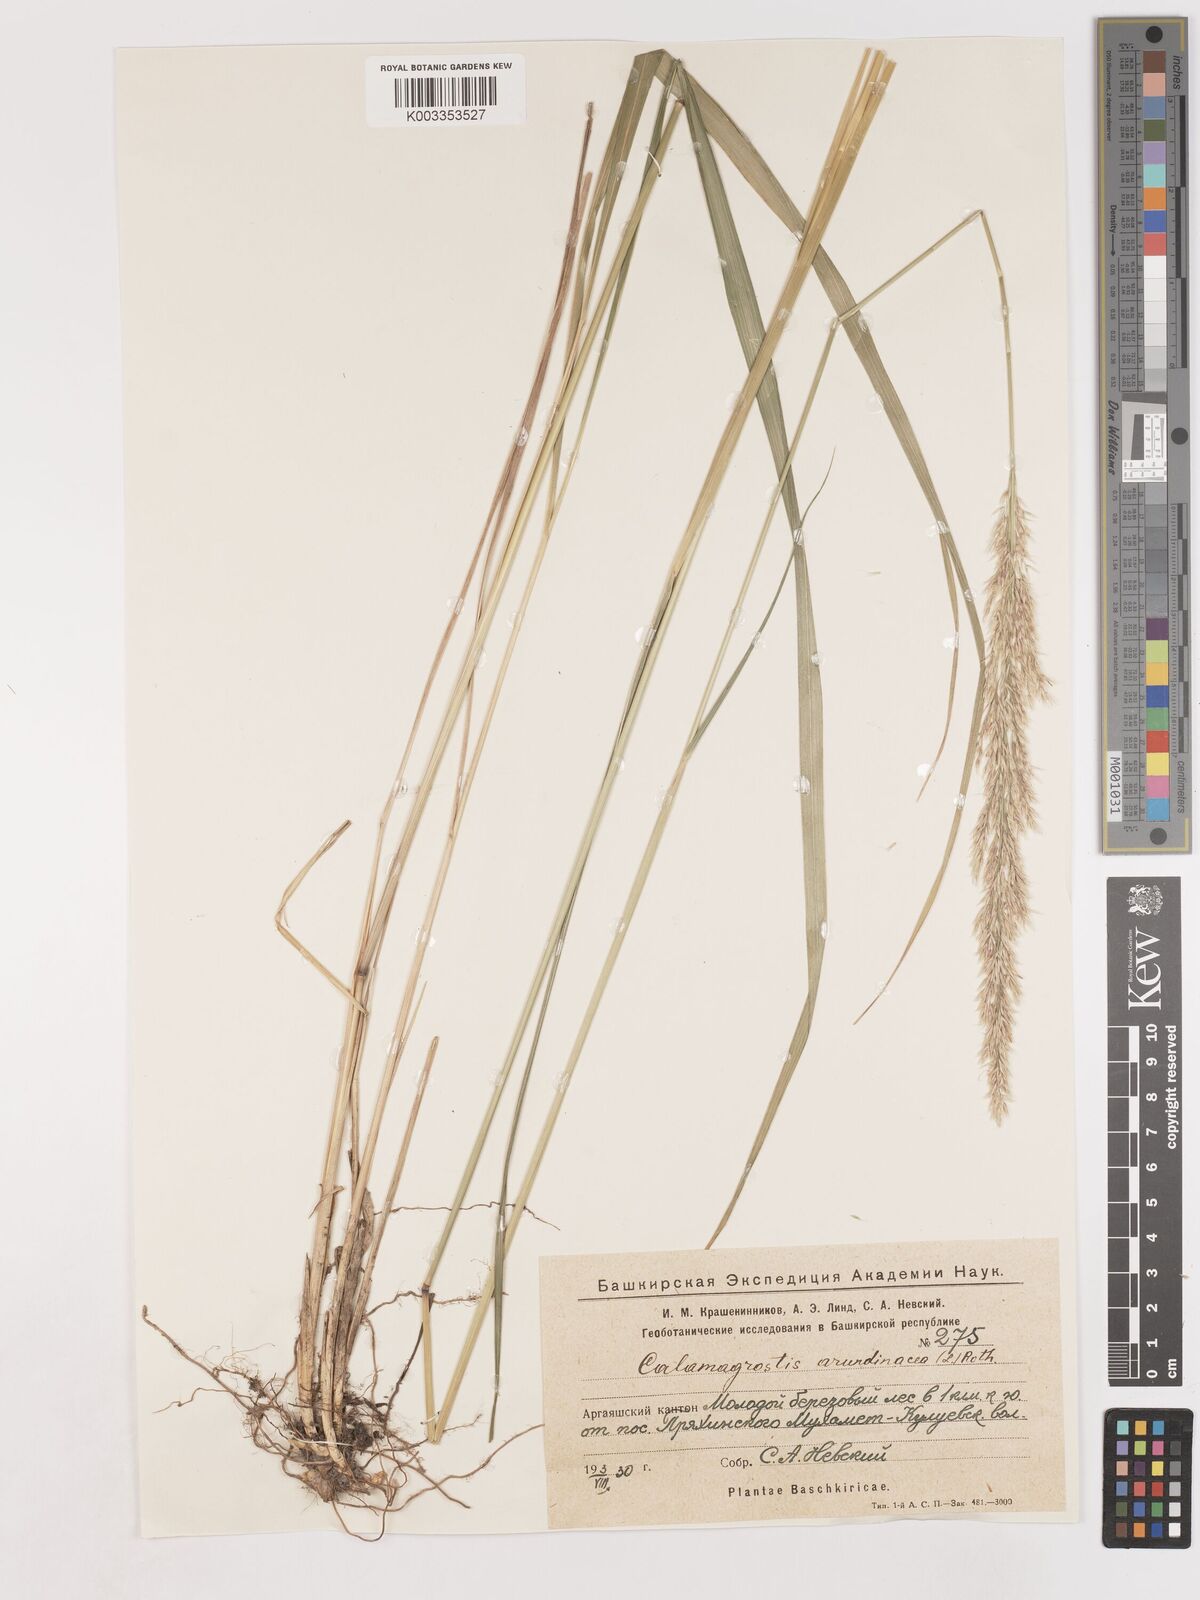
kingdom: Plantae
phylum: Tracheophyta
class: Liliopsida
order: Poales
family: Poaceae
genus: Calamagrostis
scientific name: Calamagrostis
